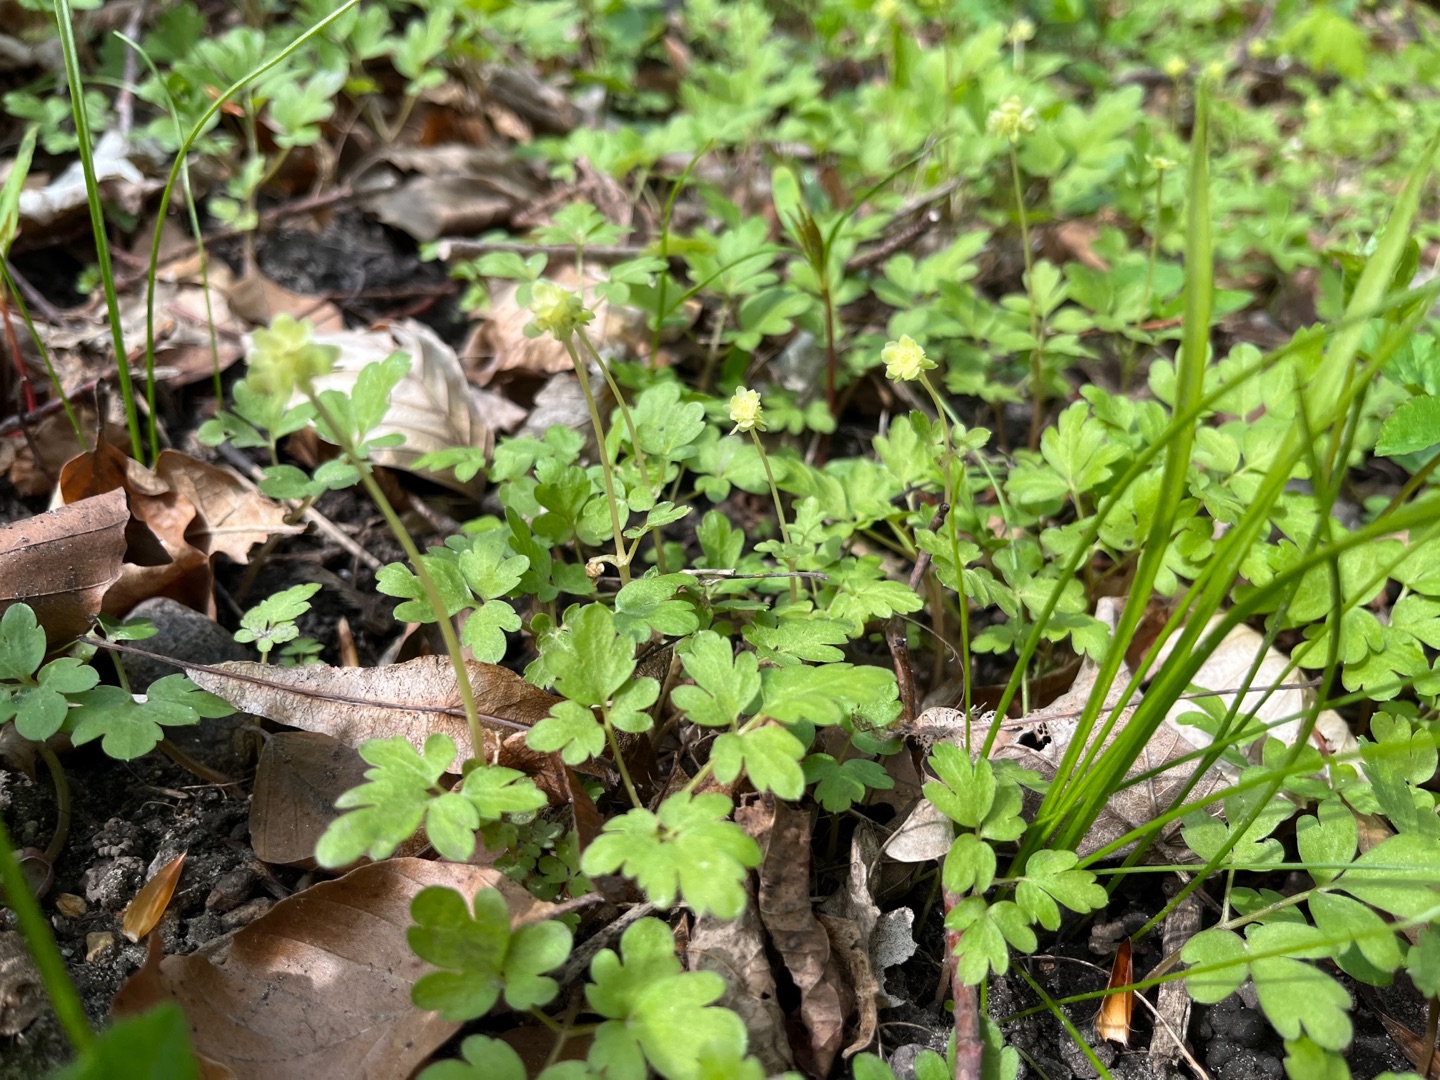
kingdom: Plantae
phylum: Tracheophyta
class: Magnoliopsida
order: Dipsacales
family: Viburnaceae
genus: Adoxa
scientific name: Adoxa moschatellina
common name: Desmerurt
